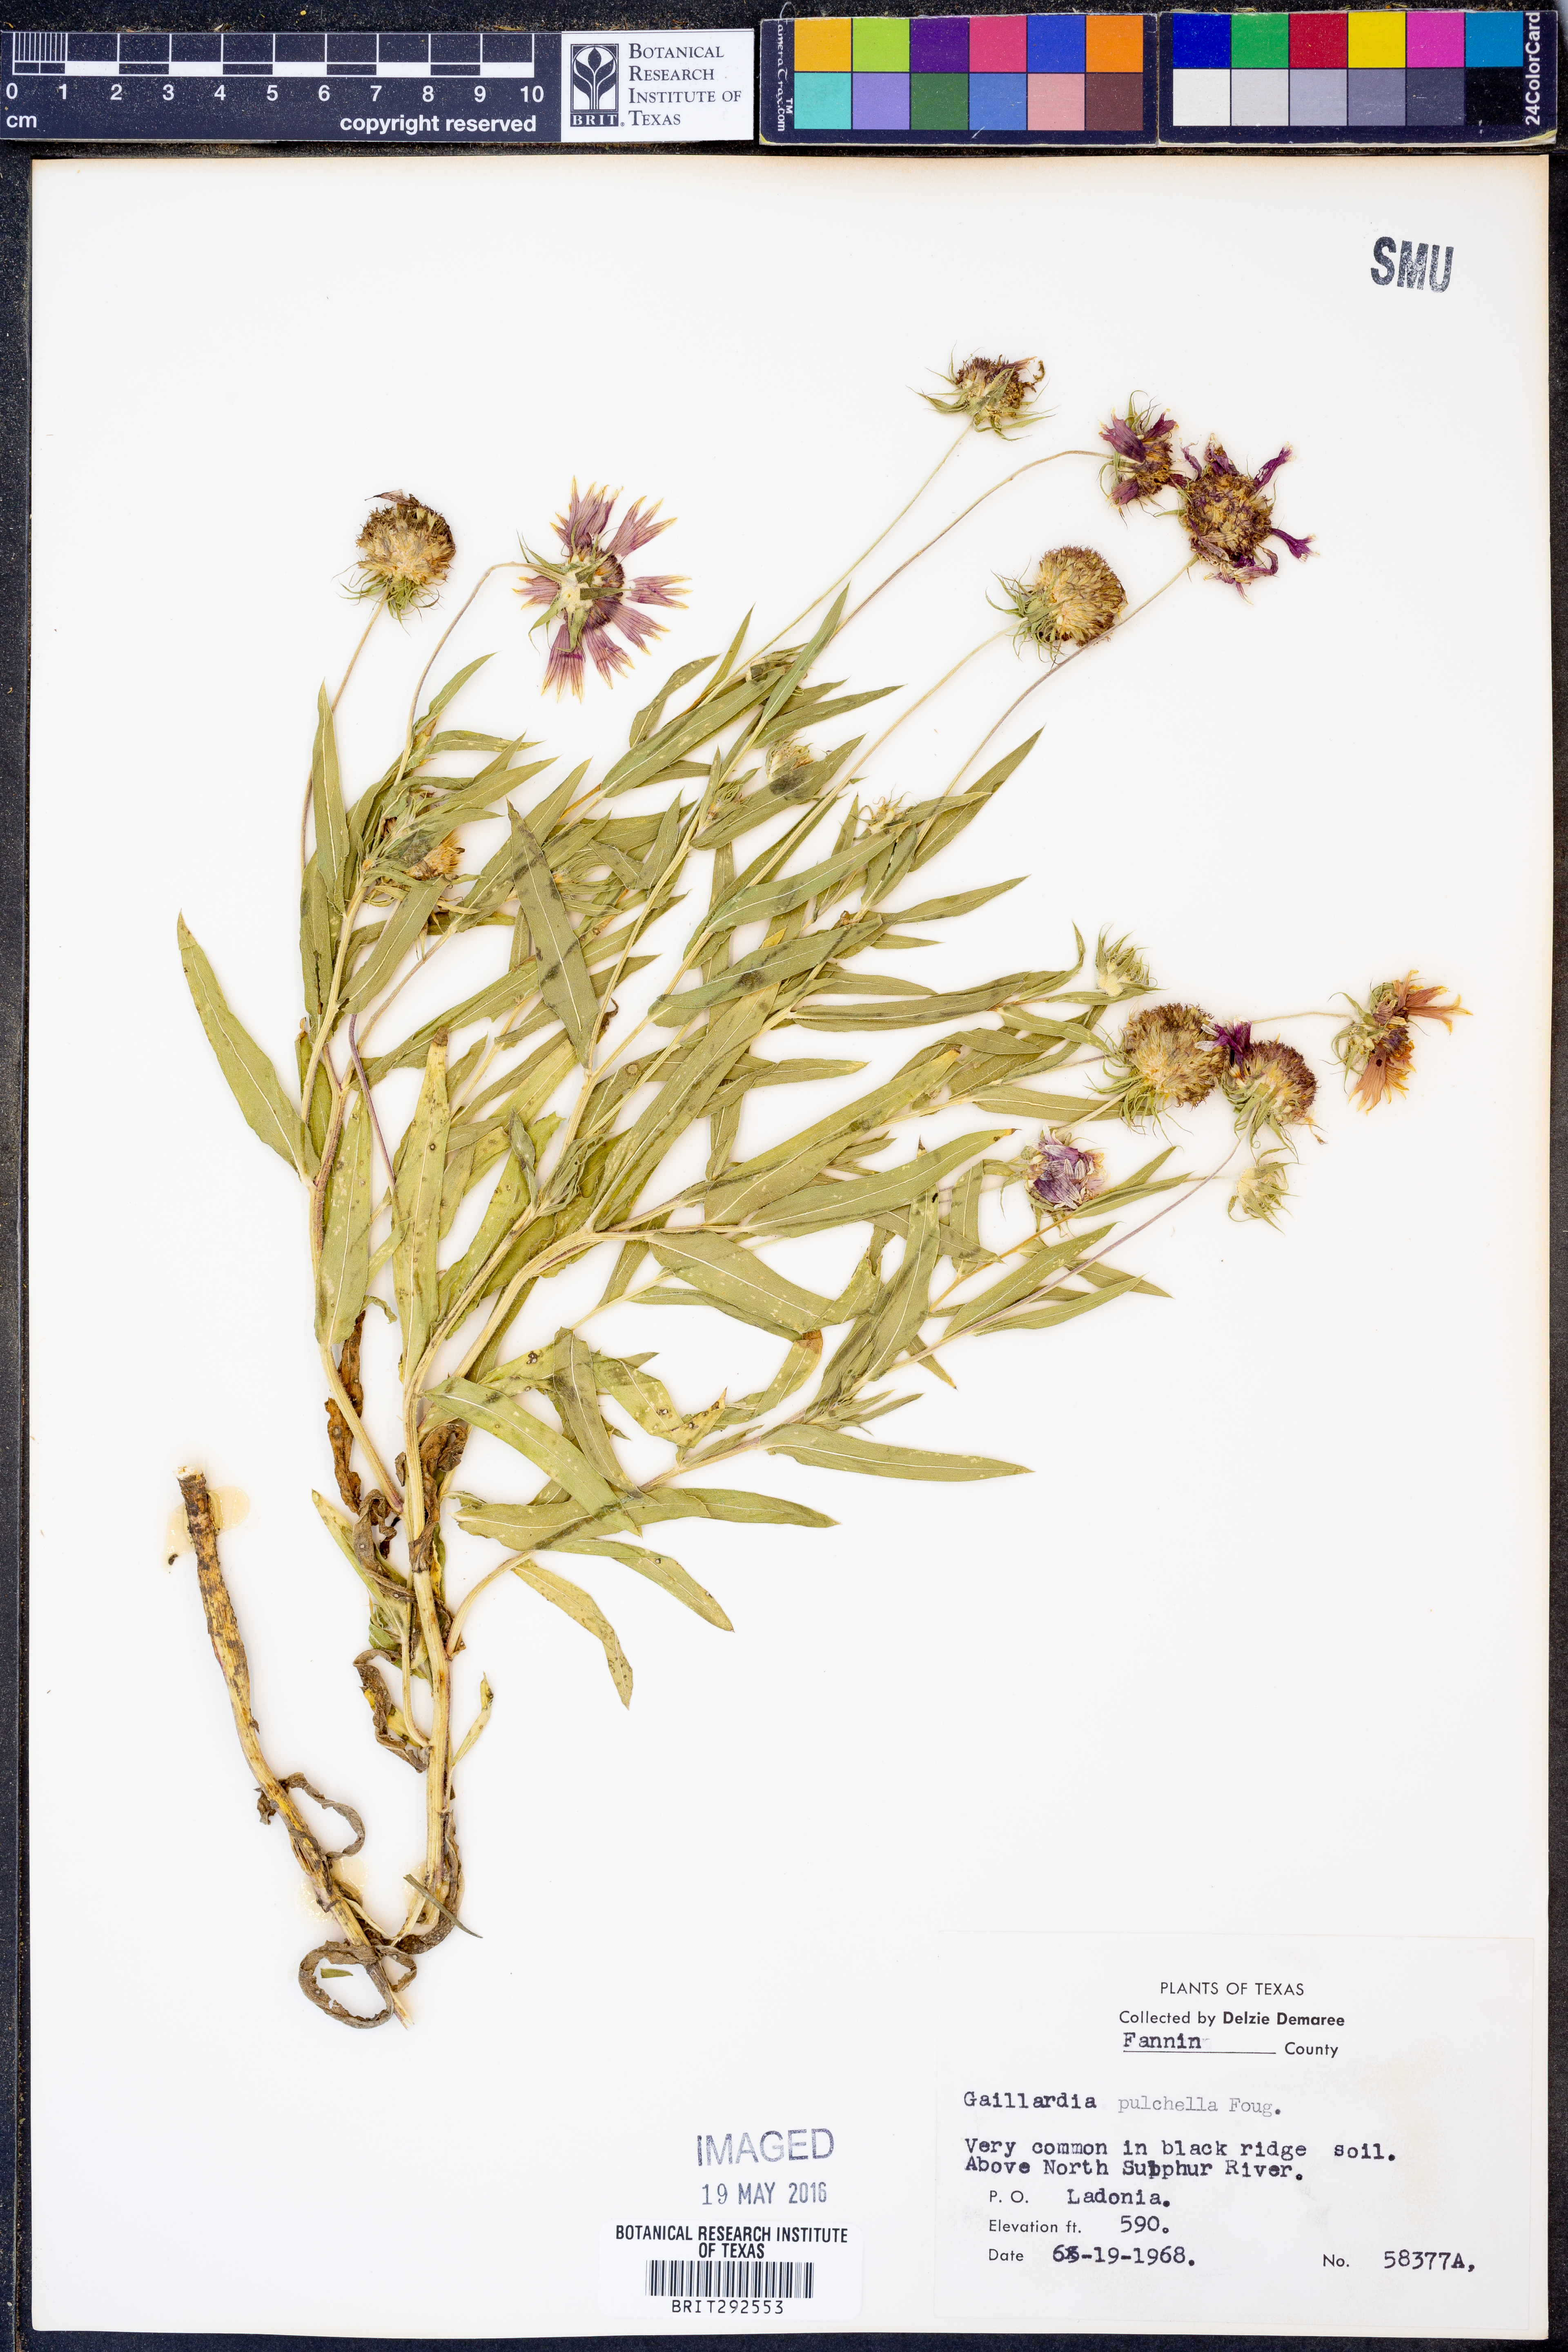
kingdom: Plantae
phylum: Tracheophyta
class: Magnoliopsida
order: Asterales
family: Asteraceae
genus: Gaillardia
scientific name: Gaillardia pulchella
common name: Firewheel
